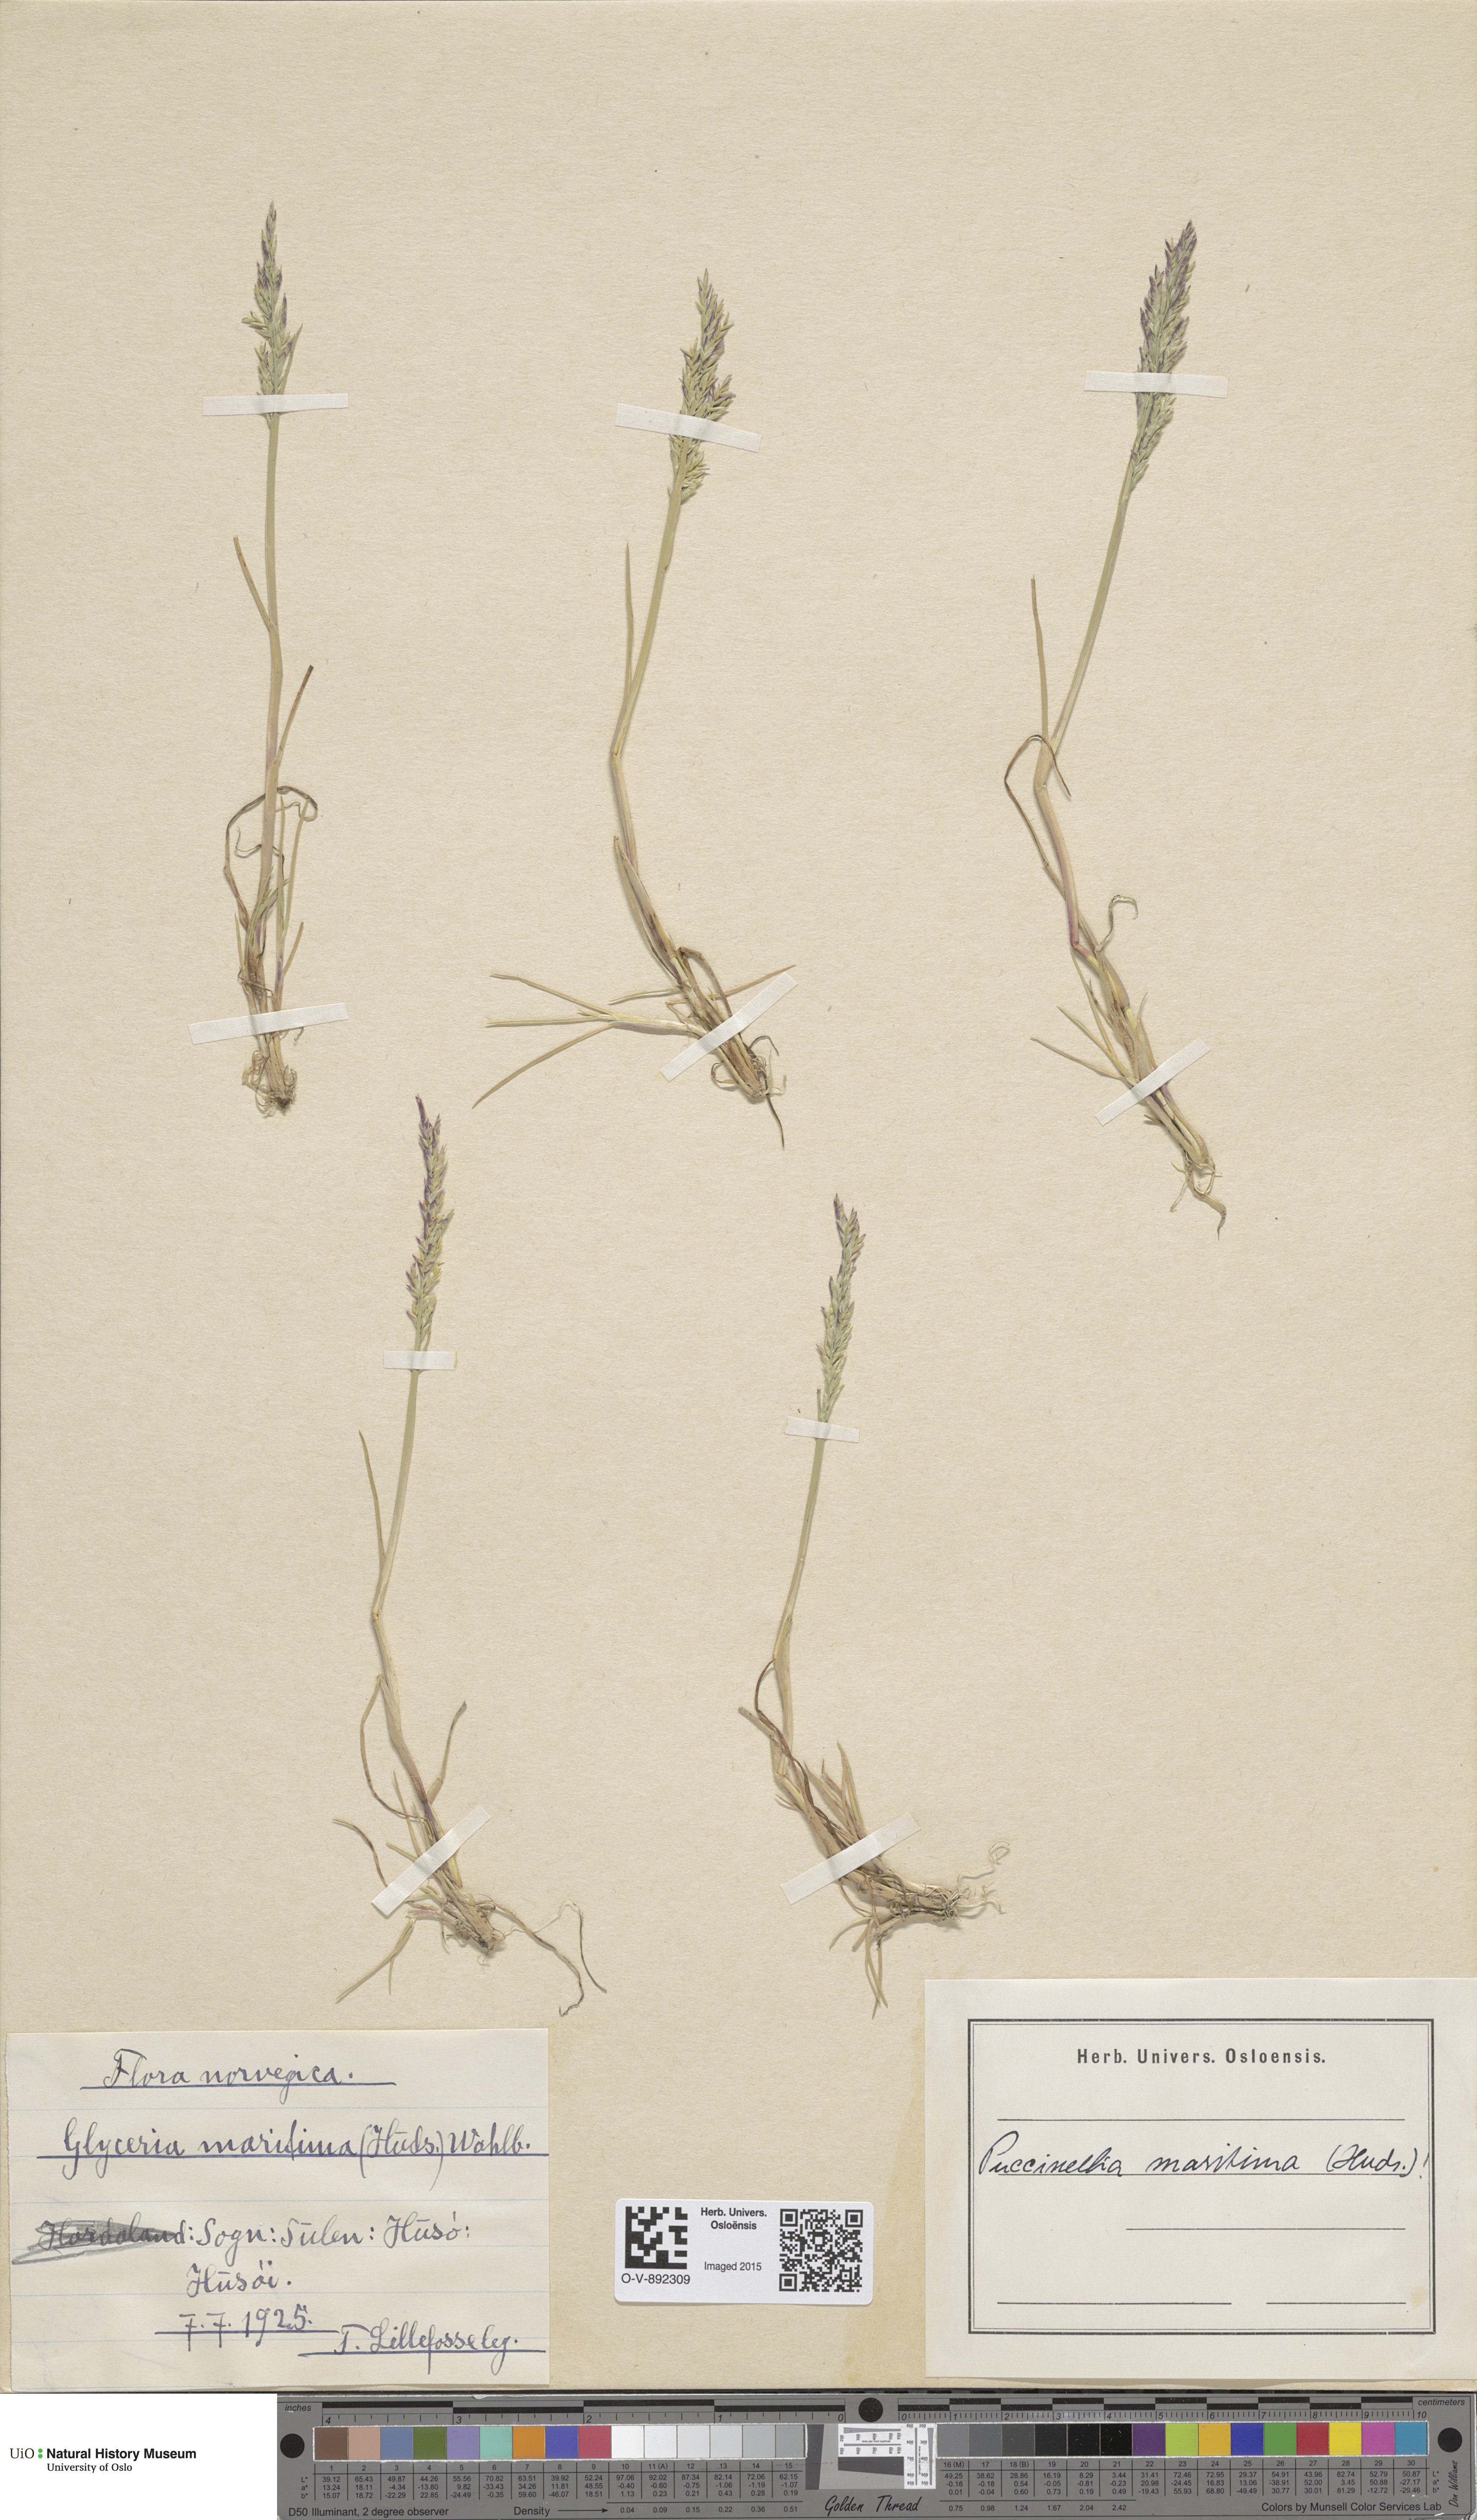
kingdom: Plantae
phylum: Tracheophyta
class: Liliopsida
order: Poales
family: Poaceae
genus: Puccinellia
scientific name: Puccinellia maritima
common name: Common saltmarsh grass
